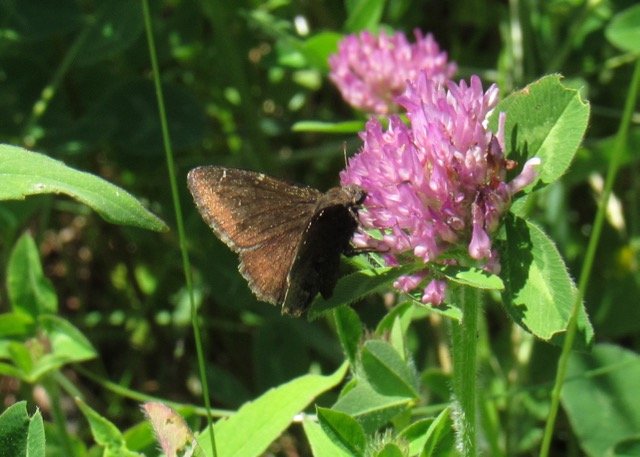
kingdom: Animalia
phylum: Arthropoda
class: Insecta
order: Lepidoptera
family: Hesperiidae
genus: Autochton
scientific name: Autochton
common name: Northern Cloudywing
